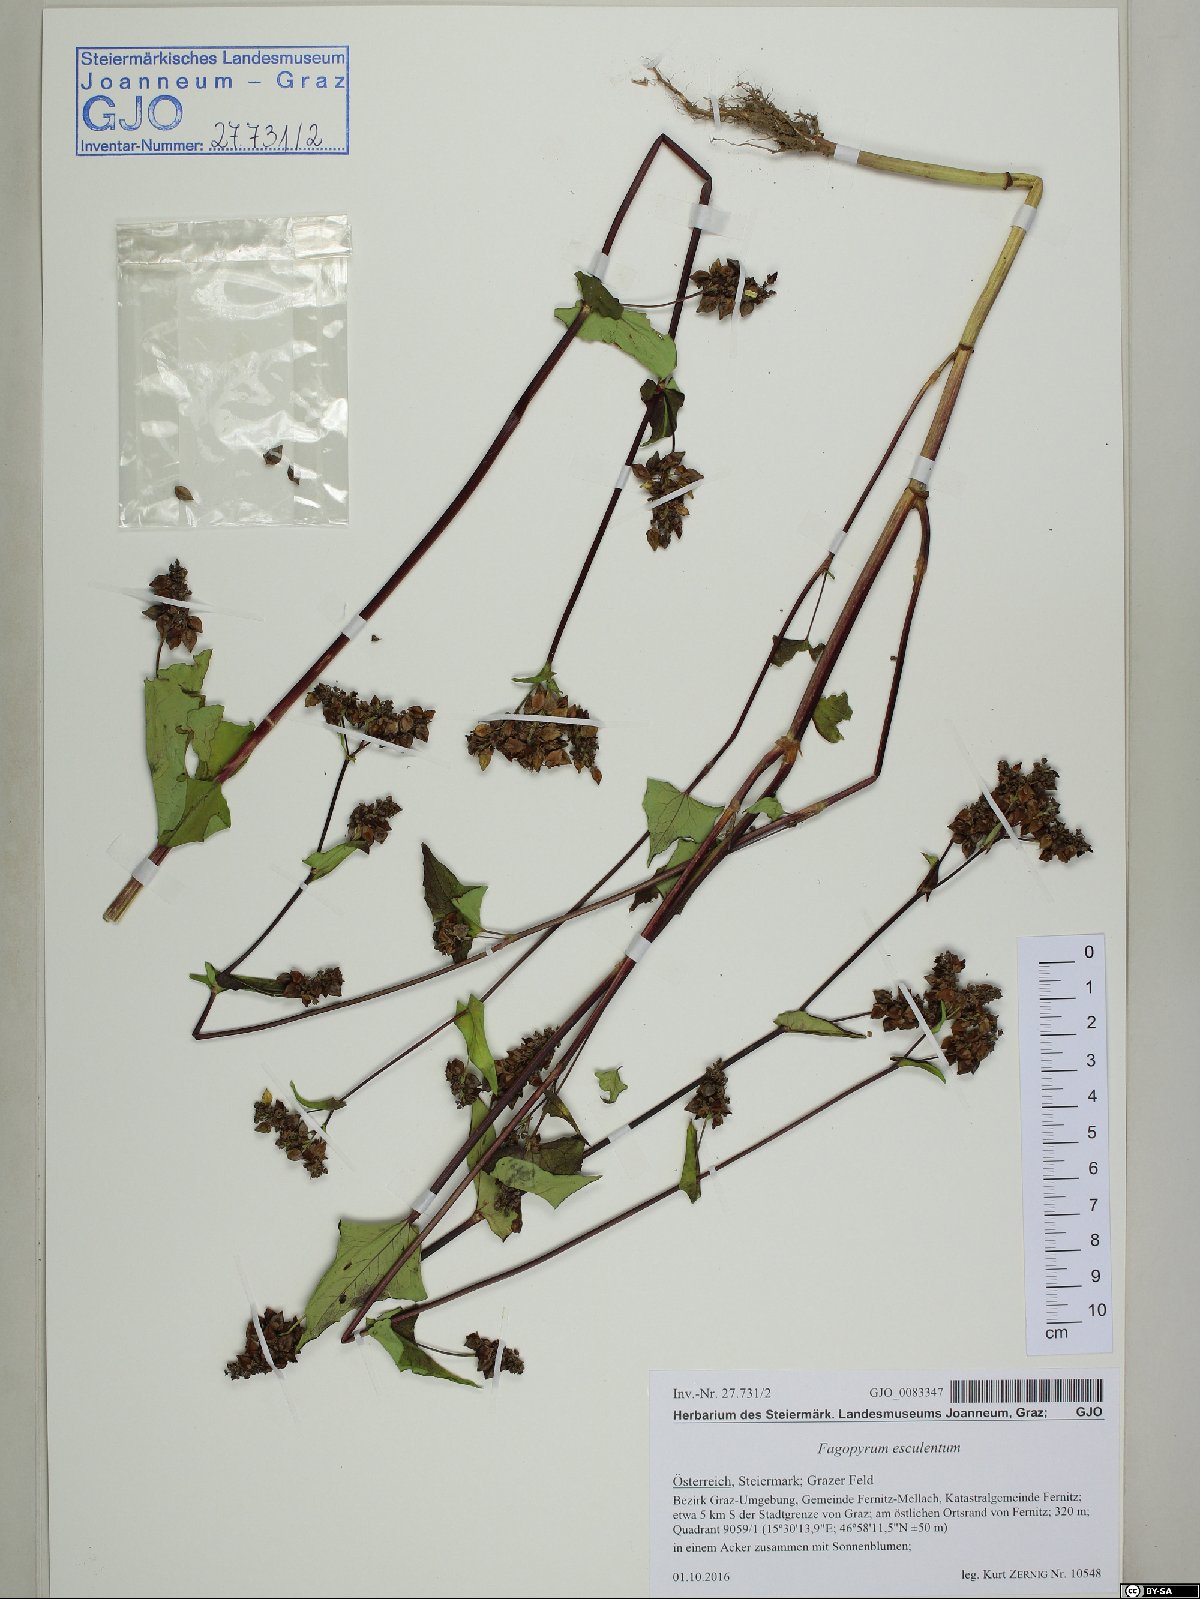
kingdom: Plantae
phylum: Tracheophyta
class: Magnoliopsida
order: Caryophyllales
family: Polygonaceae
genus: Fagopyrum
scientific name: Fagopyrum esculentum
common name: Buckwheat
